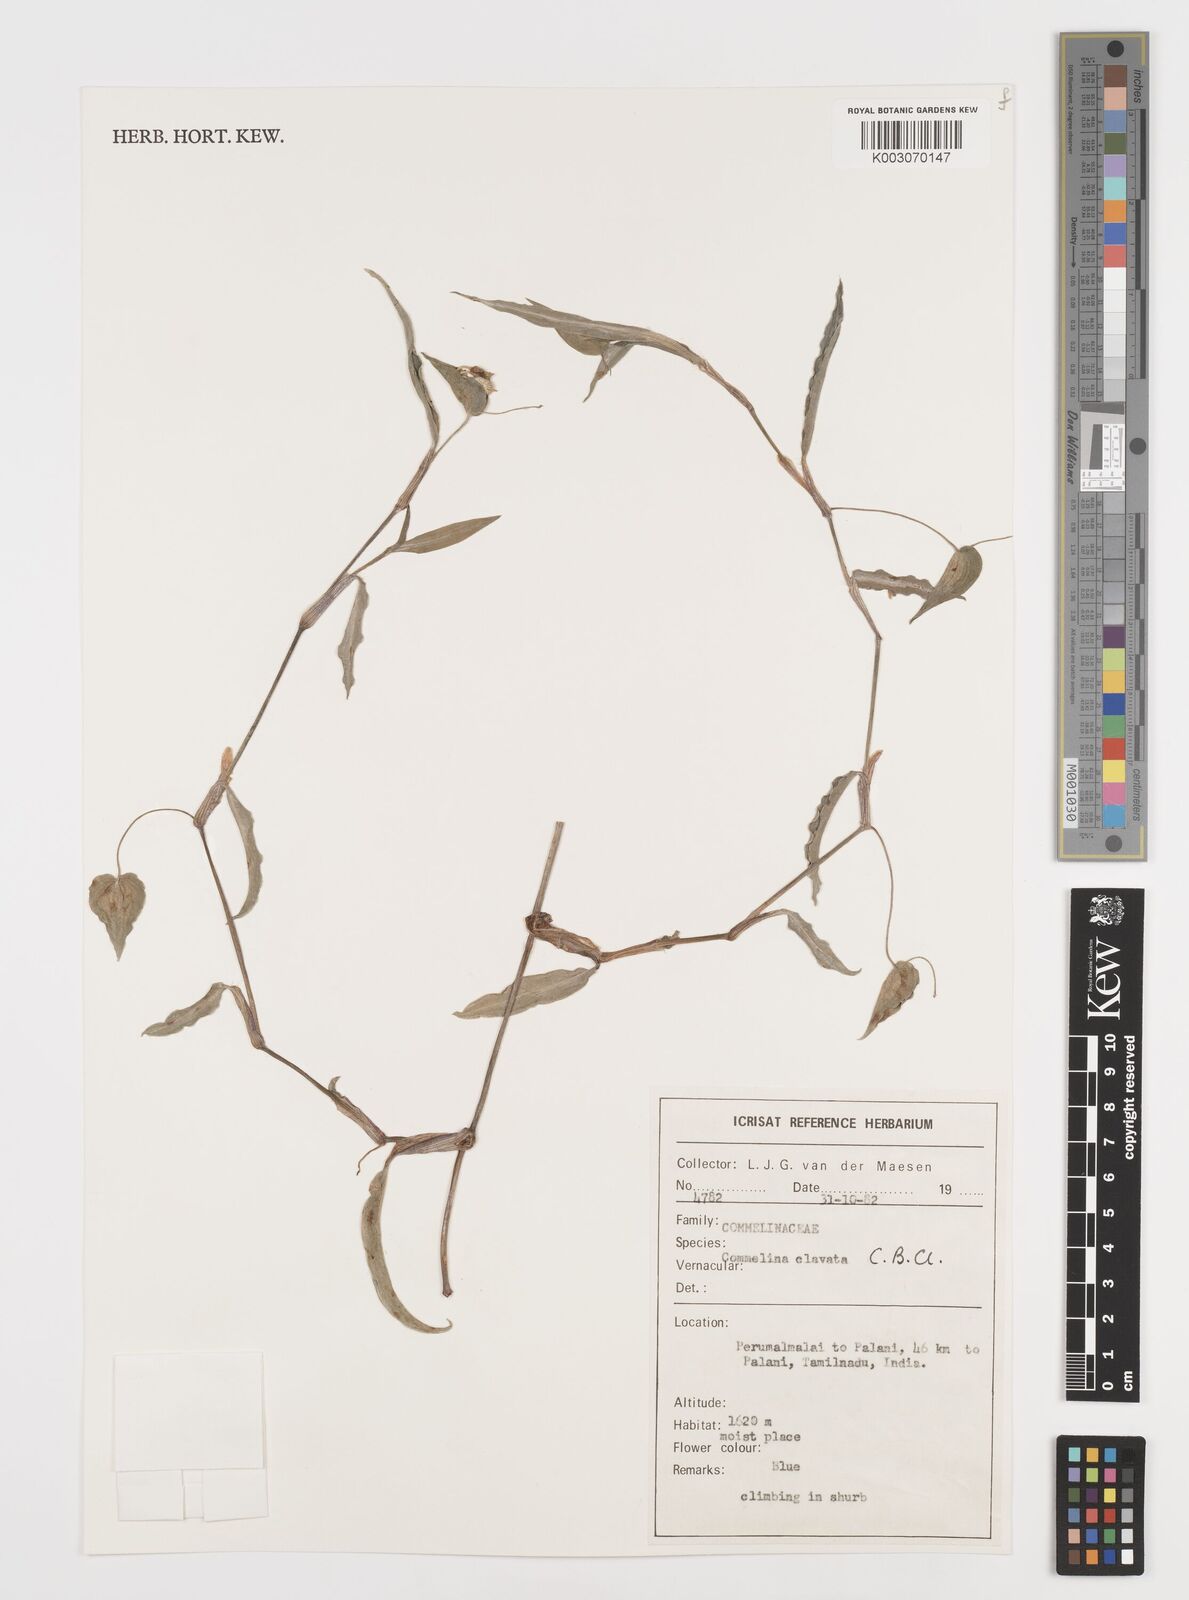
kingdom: Plantae
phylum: Tracheophyta
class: Liliopsida
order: Commelinales
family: Commelinaceae
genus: Commelina
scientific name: Commelina clavata
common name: Willow leaved dayflower
